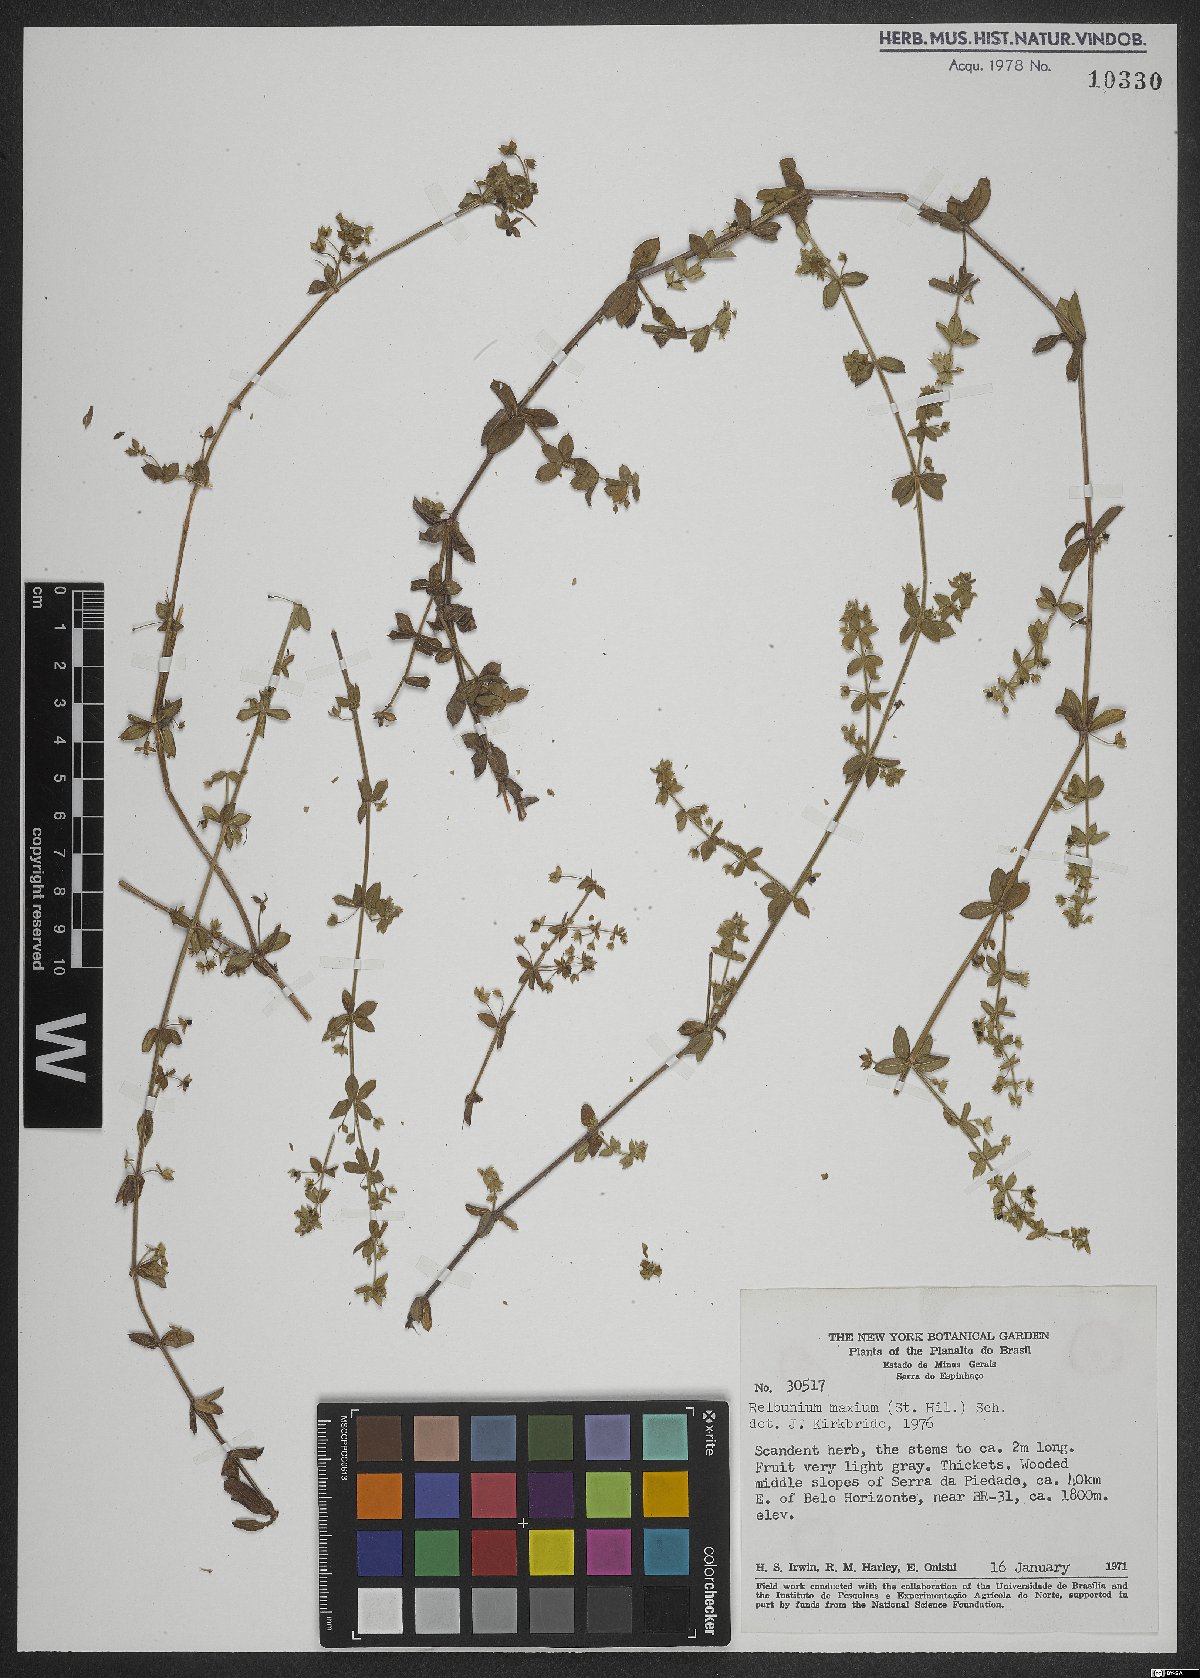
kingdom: Plantae
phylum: Tracheophyta
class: Magnoliopsida
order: Gentianales
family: Rubiaceae
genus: Galium
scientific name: Galium noxium
